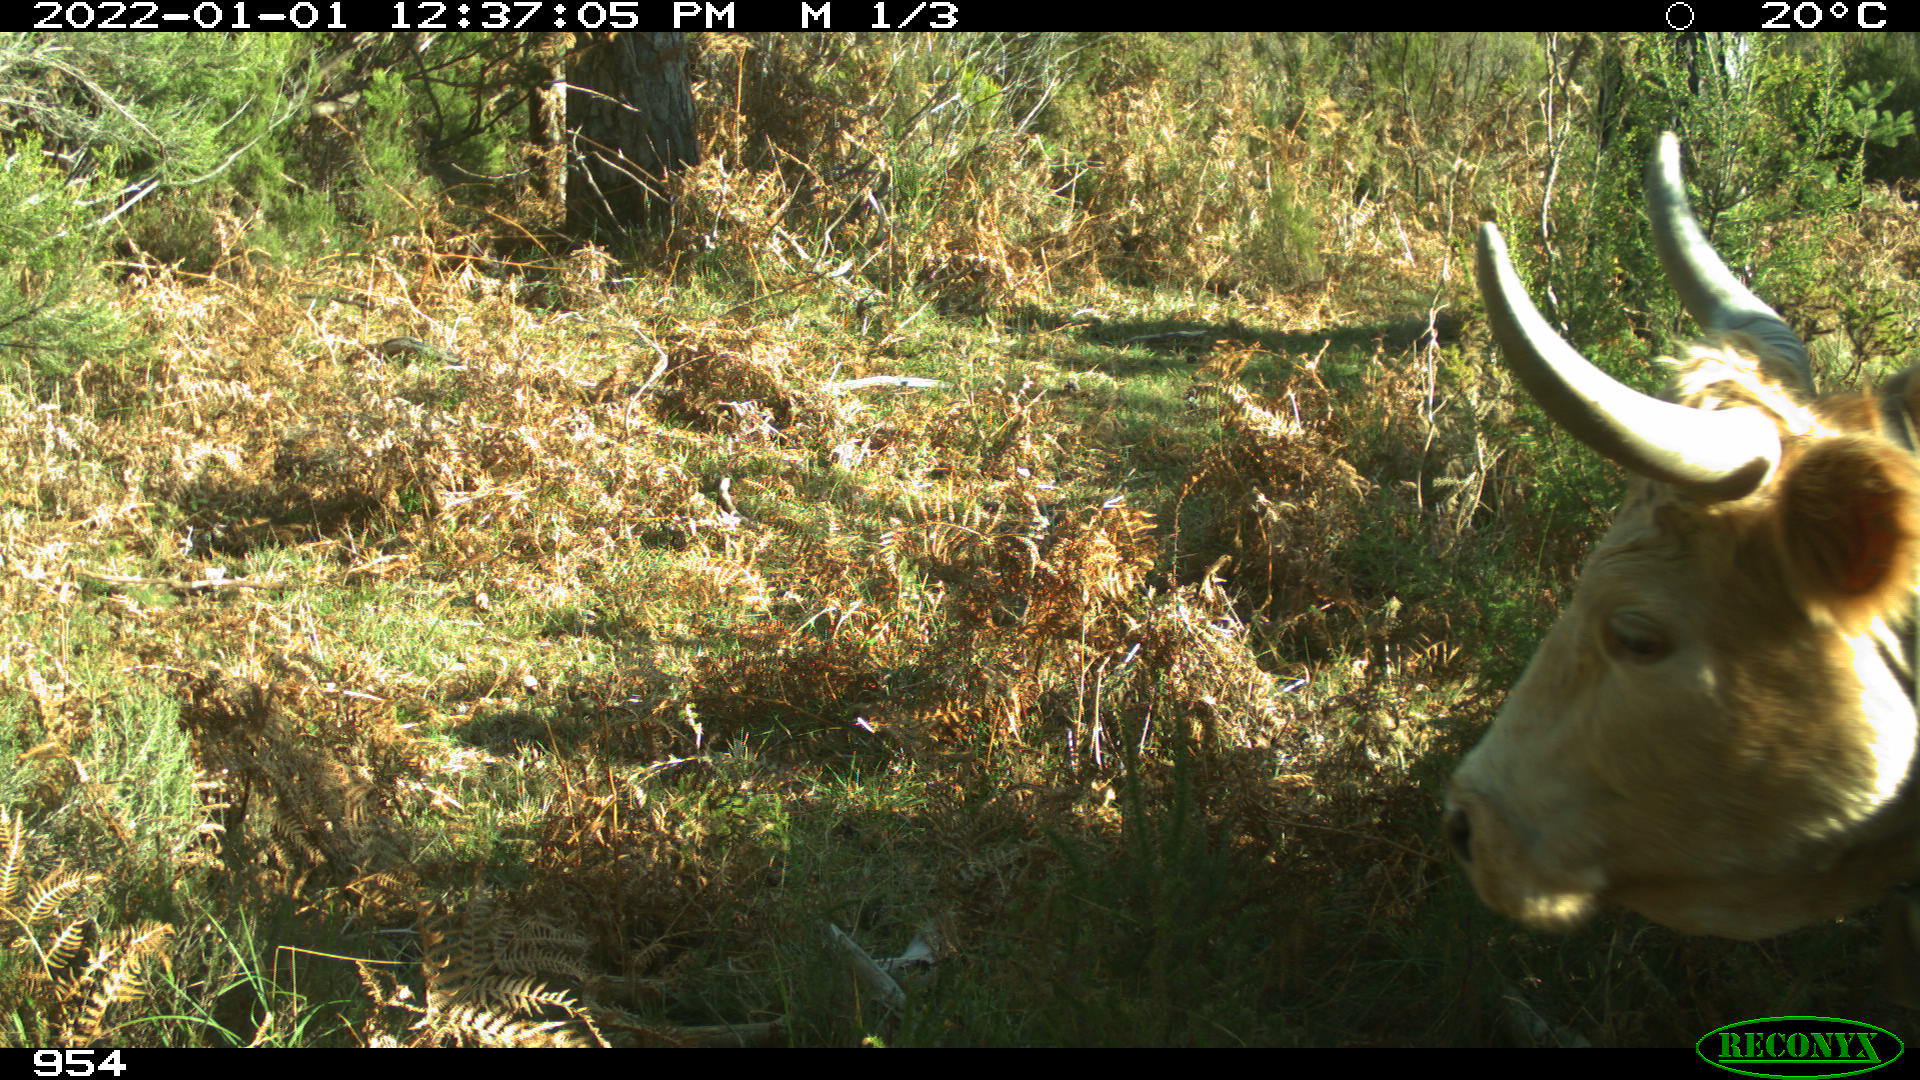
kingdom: Animalia
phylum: Chordata
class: Mammalia
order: Artiodactyla
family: Bovidae
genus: Bos
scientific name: Bos taurus
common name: Domesticated cattle
